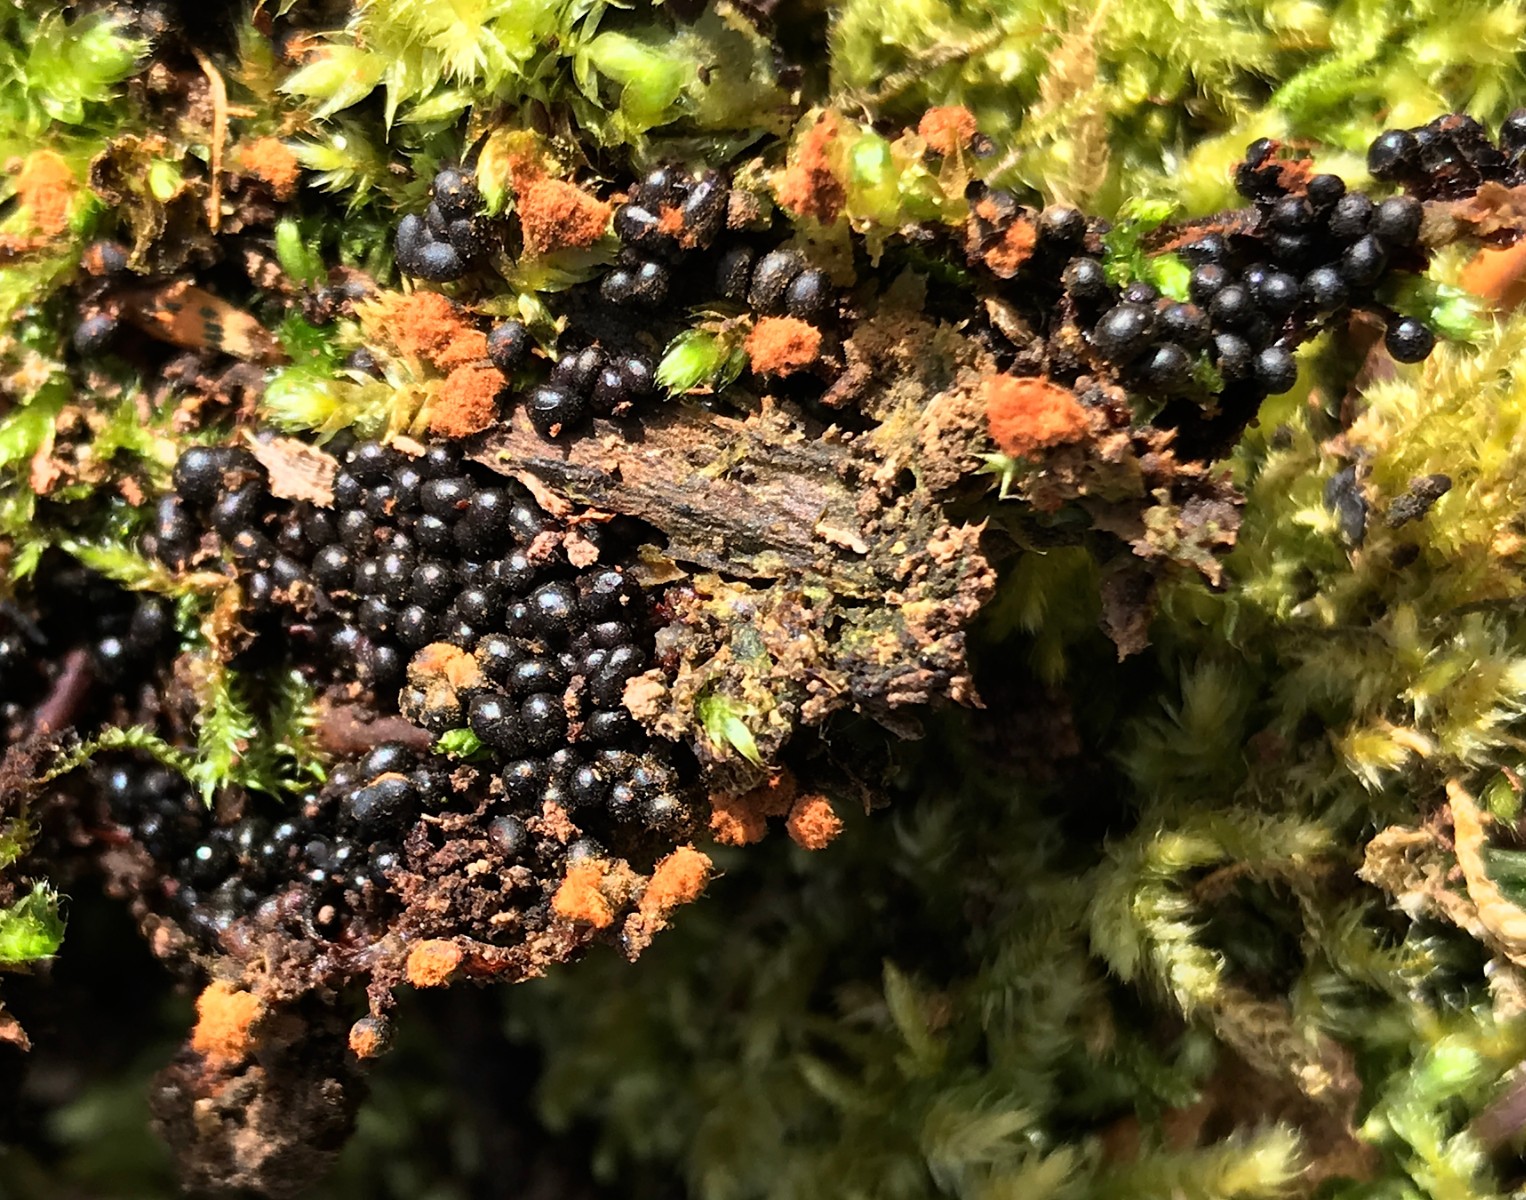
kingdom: Protozoa
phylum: Mycetozoa
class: Myxomycetes
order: Trichiales
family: Trichiaceae
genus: Metatrichia
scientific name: Metatrichia floriformis
